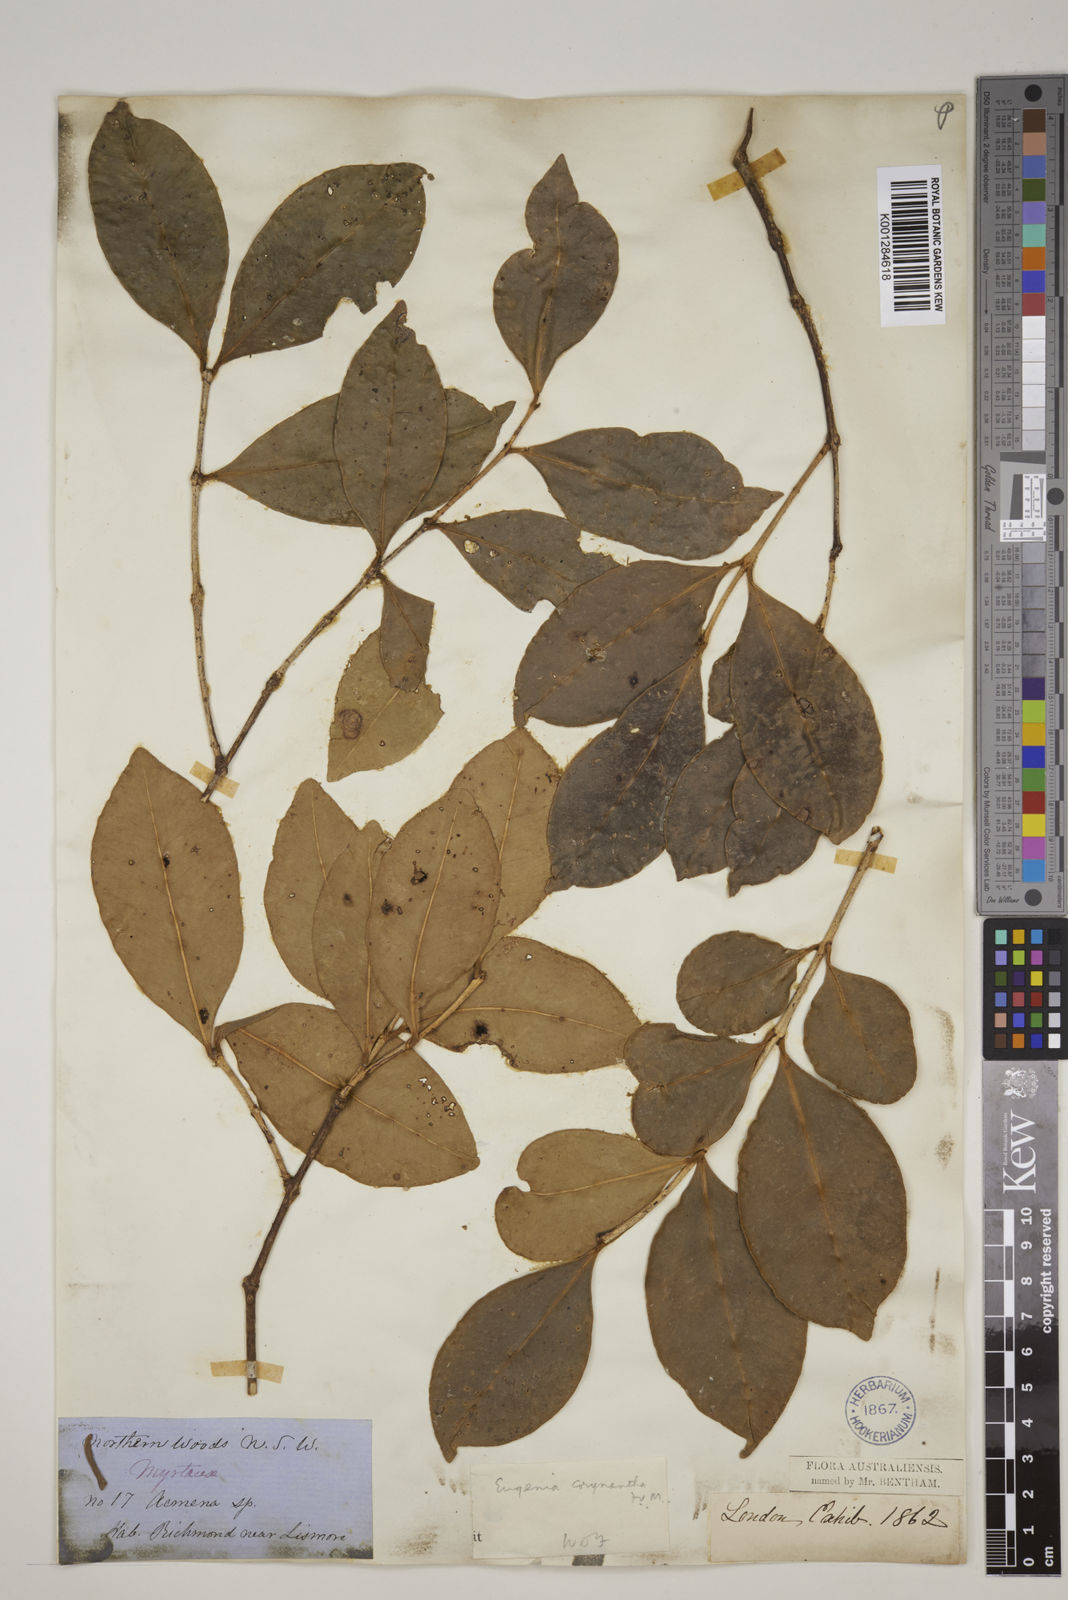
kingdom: Plantae
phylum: Tracheophyta
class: Magnoliopsida
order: Myrtales
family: Myrtaceae
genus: Syzygium
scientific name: Syzygium corynanthum
